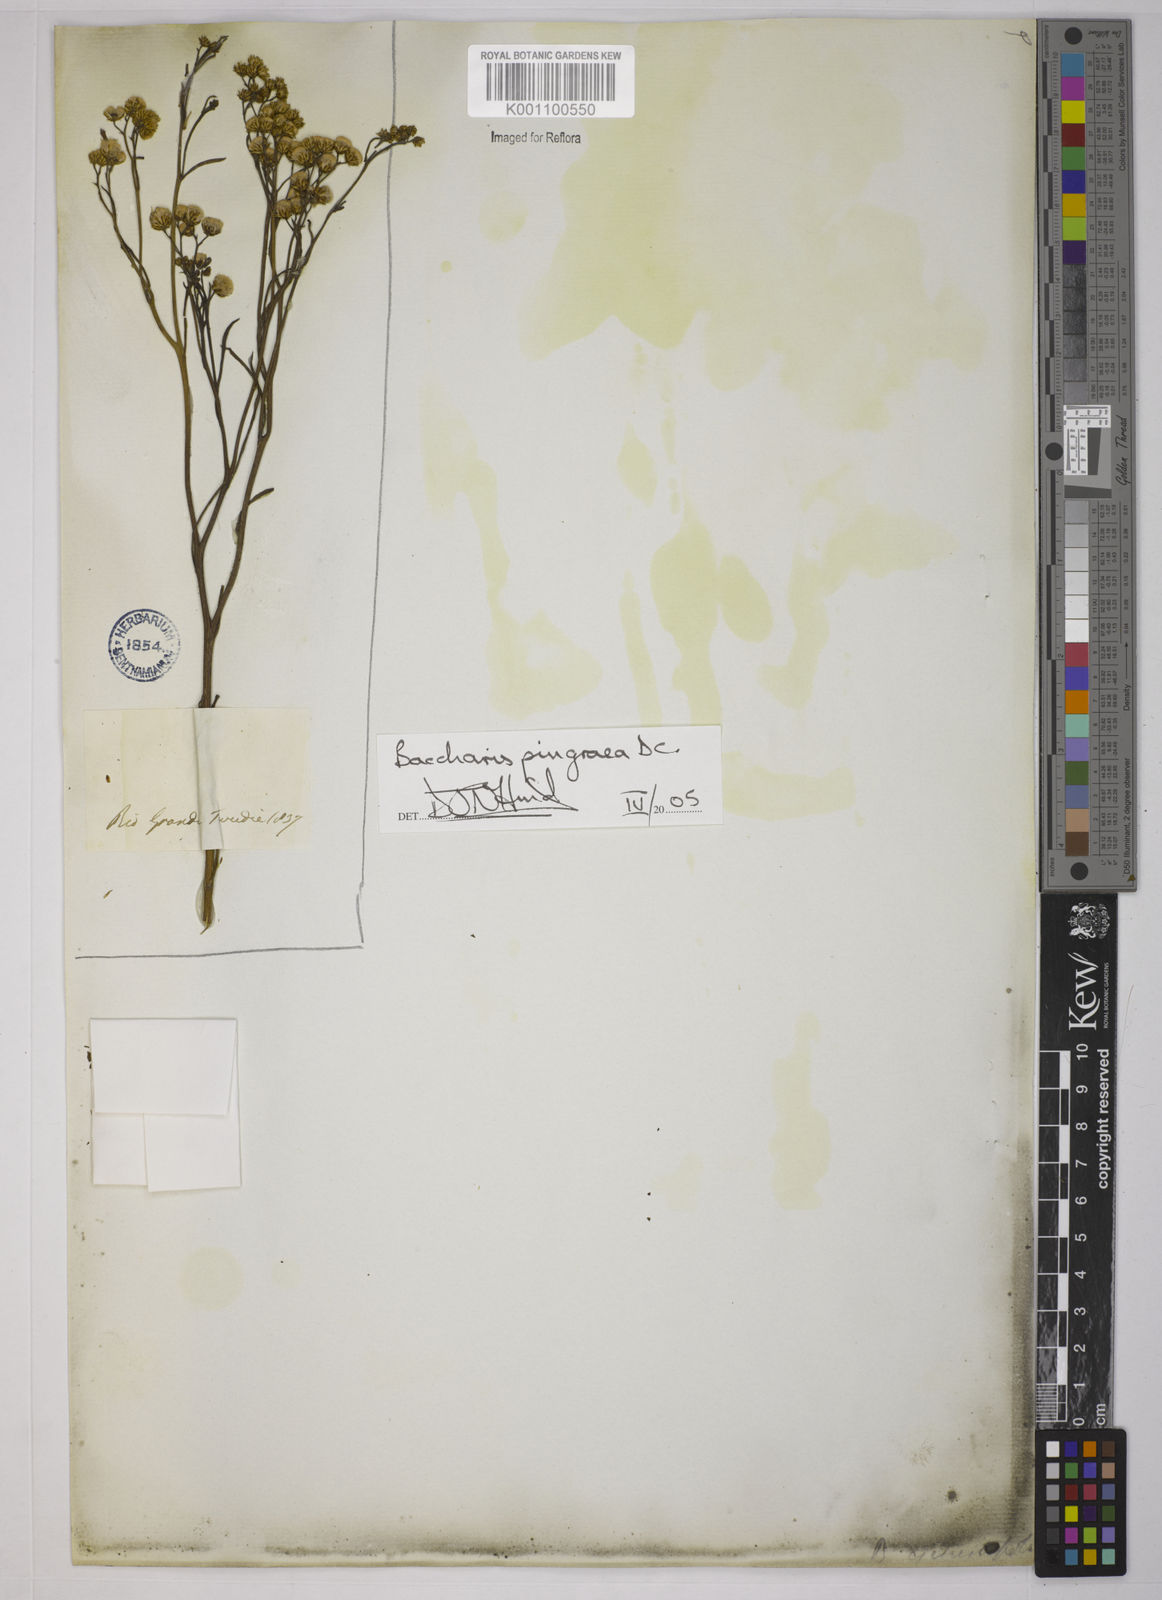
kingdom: Plantae
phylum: Tracheophyta
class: Magnoliopsida
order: Asterales
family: Asteraceae
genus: Baccharis
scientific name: Baccharis glutinosa
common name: Saltmarsh baccharis
